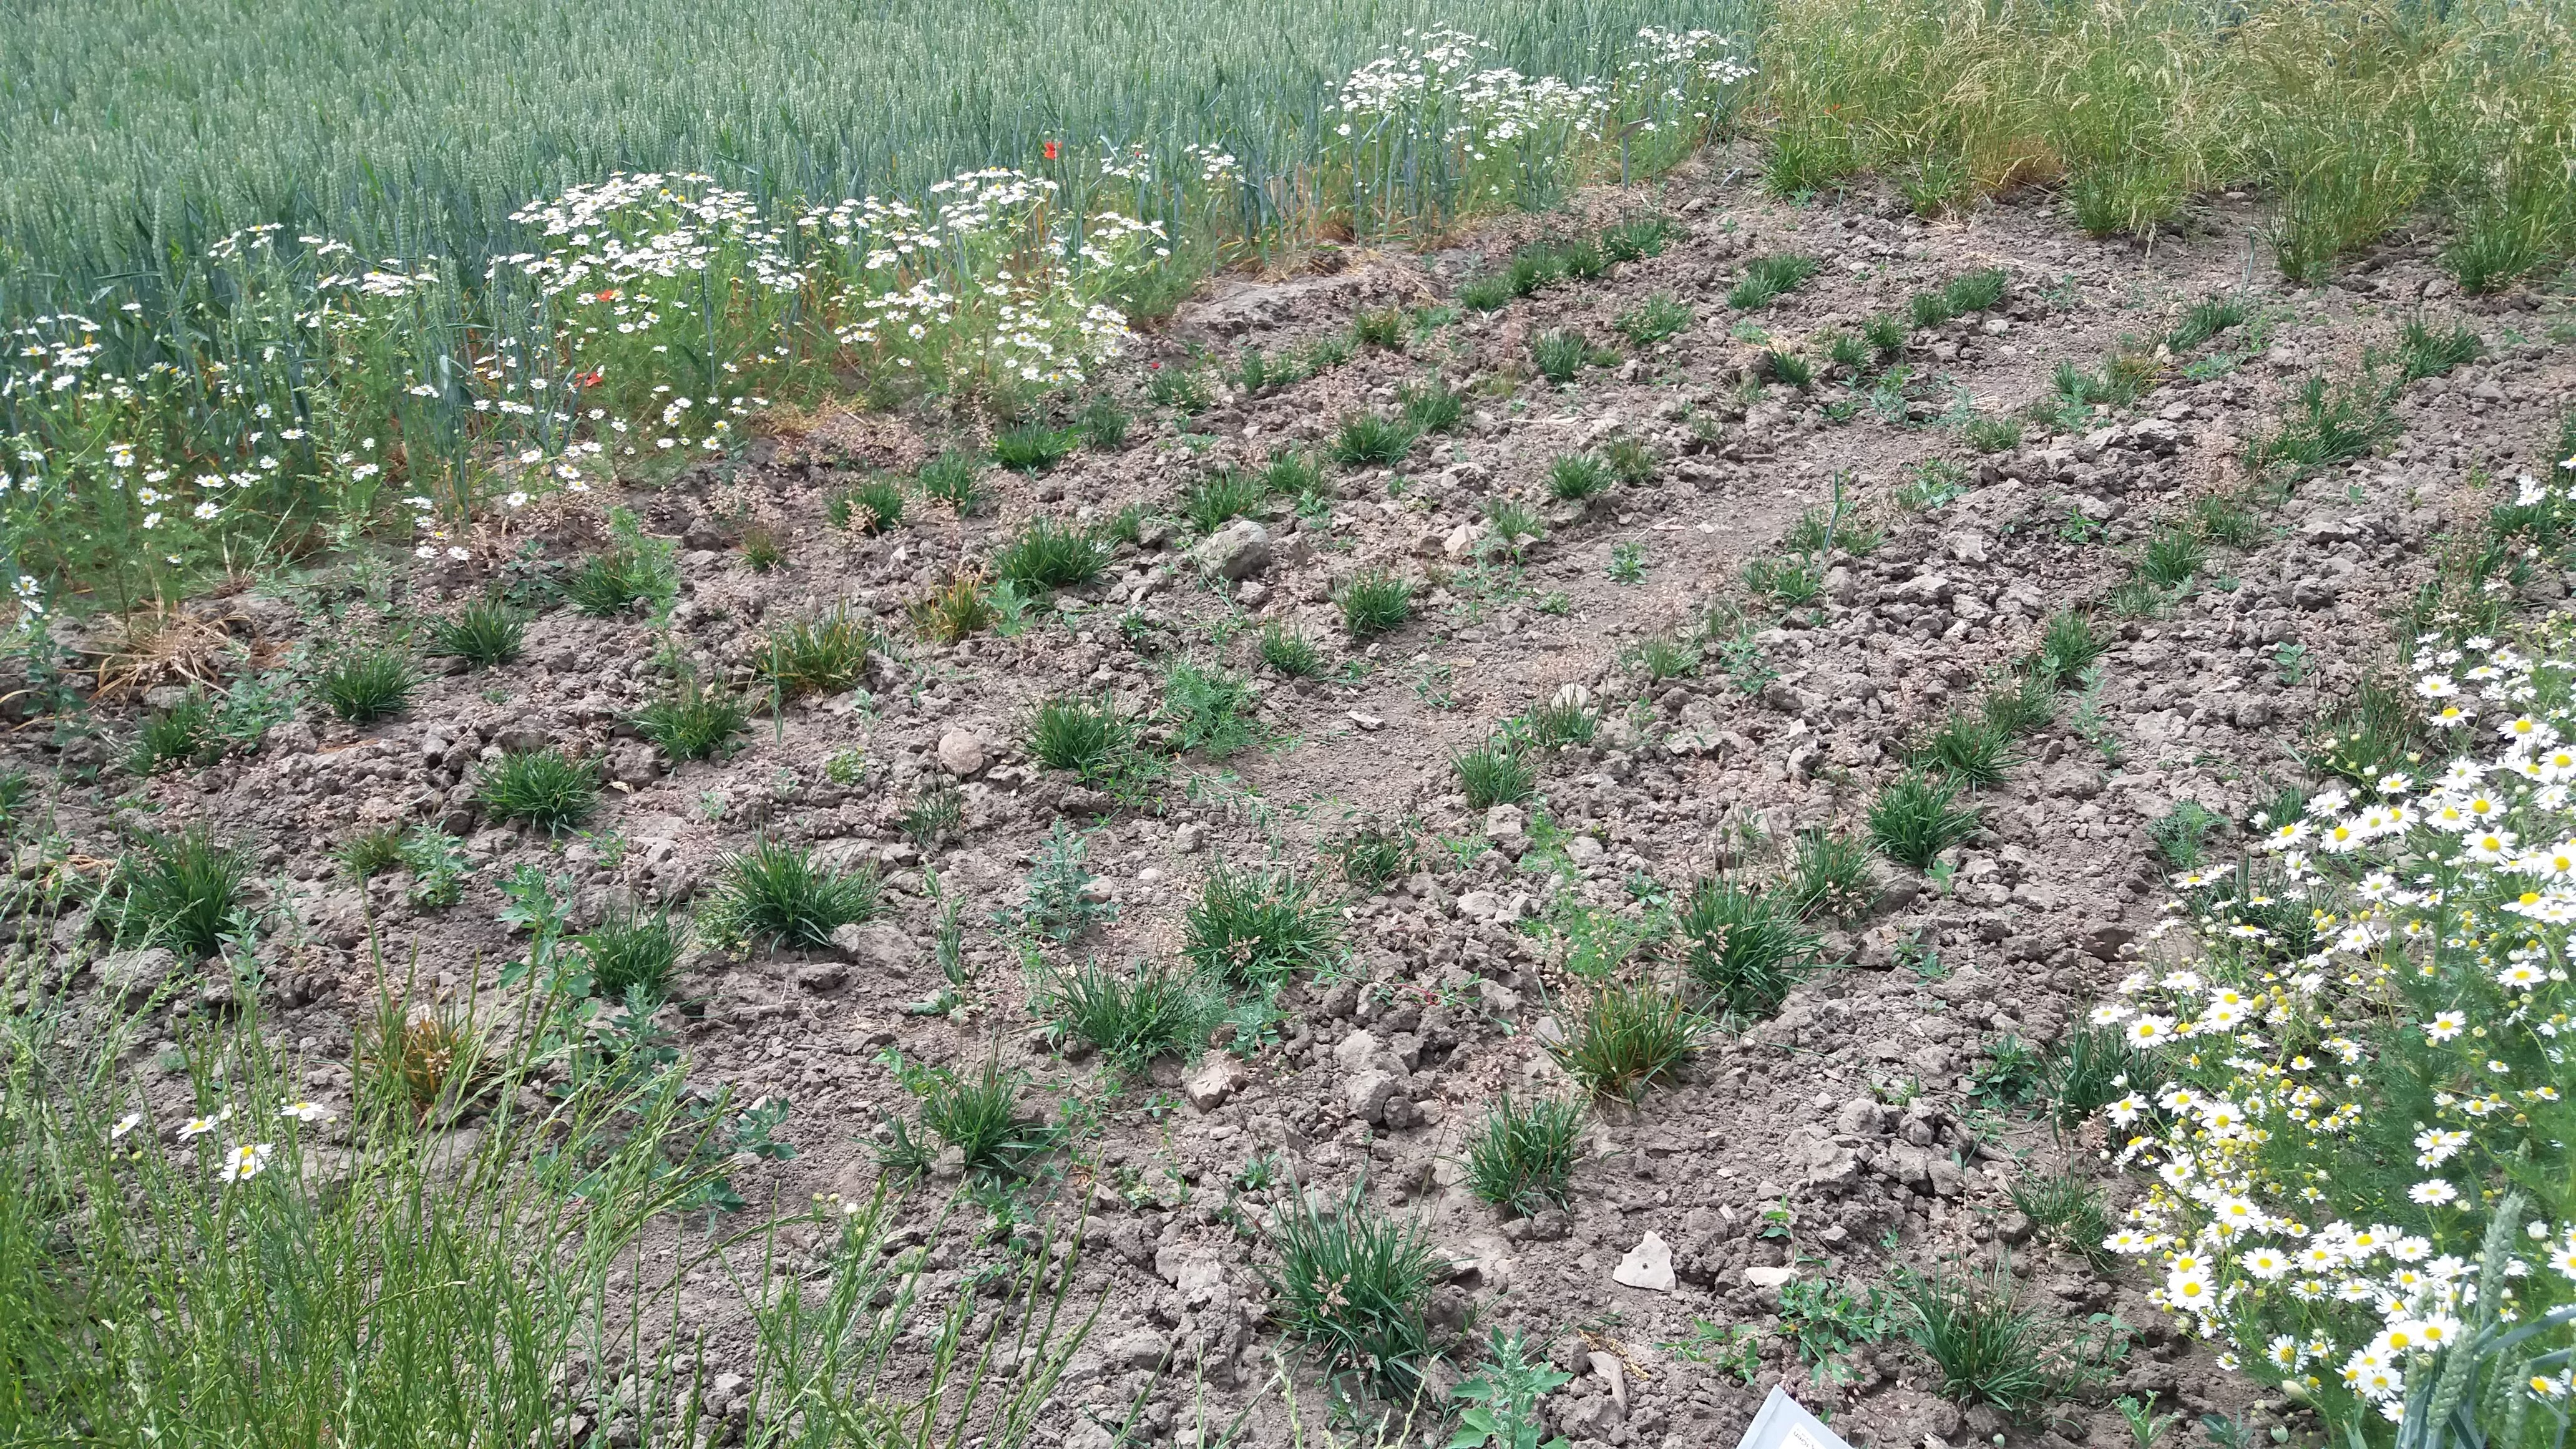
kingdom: Plantae
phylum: Tracheophyta
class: Liliopsida
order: Poales
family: Poaceae
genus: Poa
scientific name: Poa pratensis
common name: Kentucky bluegrass
